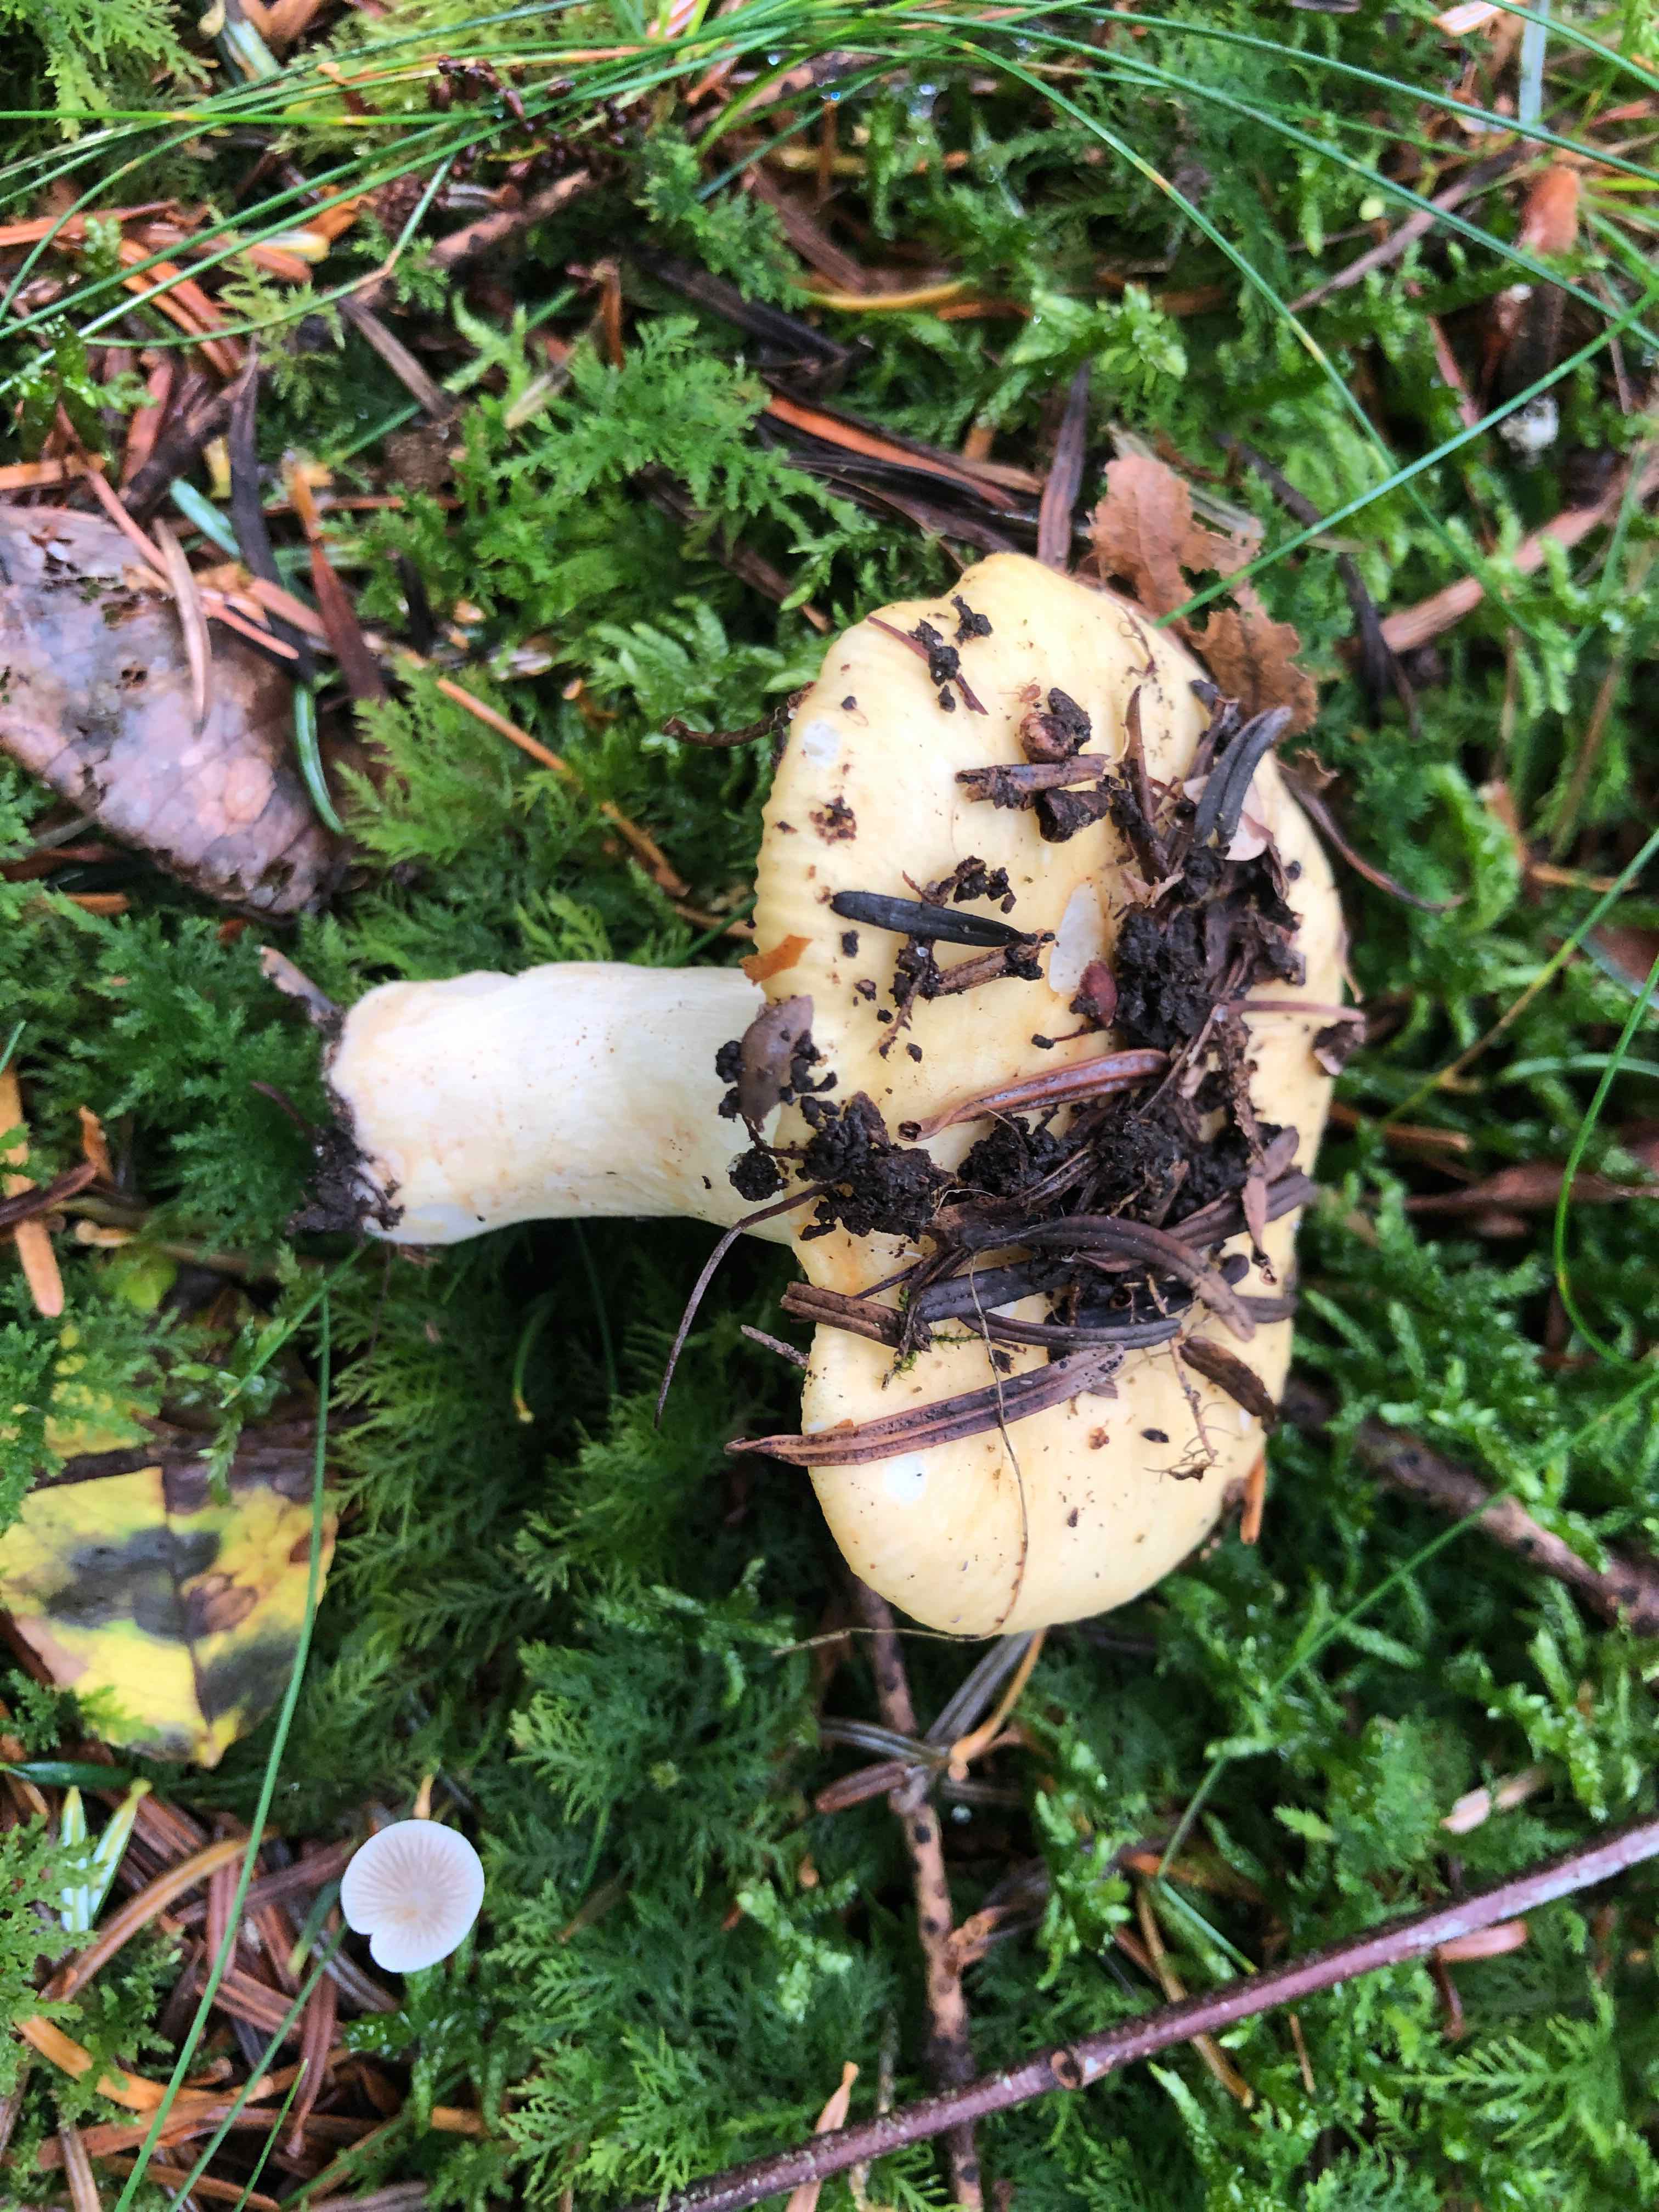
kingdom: Fungi
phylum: Basidiomycota
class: Agaricomycetes
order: Russulales
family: Russulaceae
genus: Russula
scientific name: Russula ochroleuca
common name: okkergul skørhat
